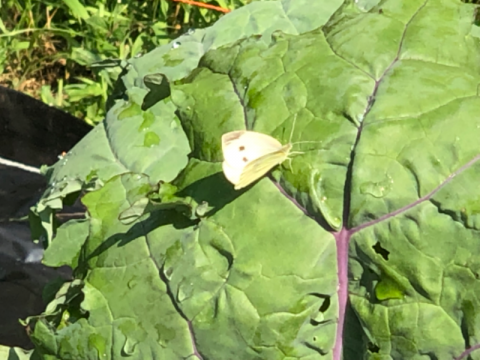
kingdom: Animalia
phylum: Arthropoda
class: Insecta
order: Lepidoptera
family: Pieridae
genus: Pieris
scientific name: Pieris rapae
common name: Cabbage White
